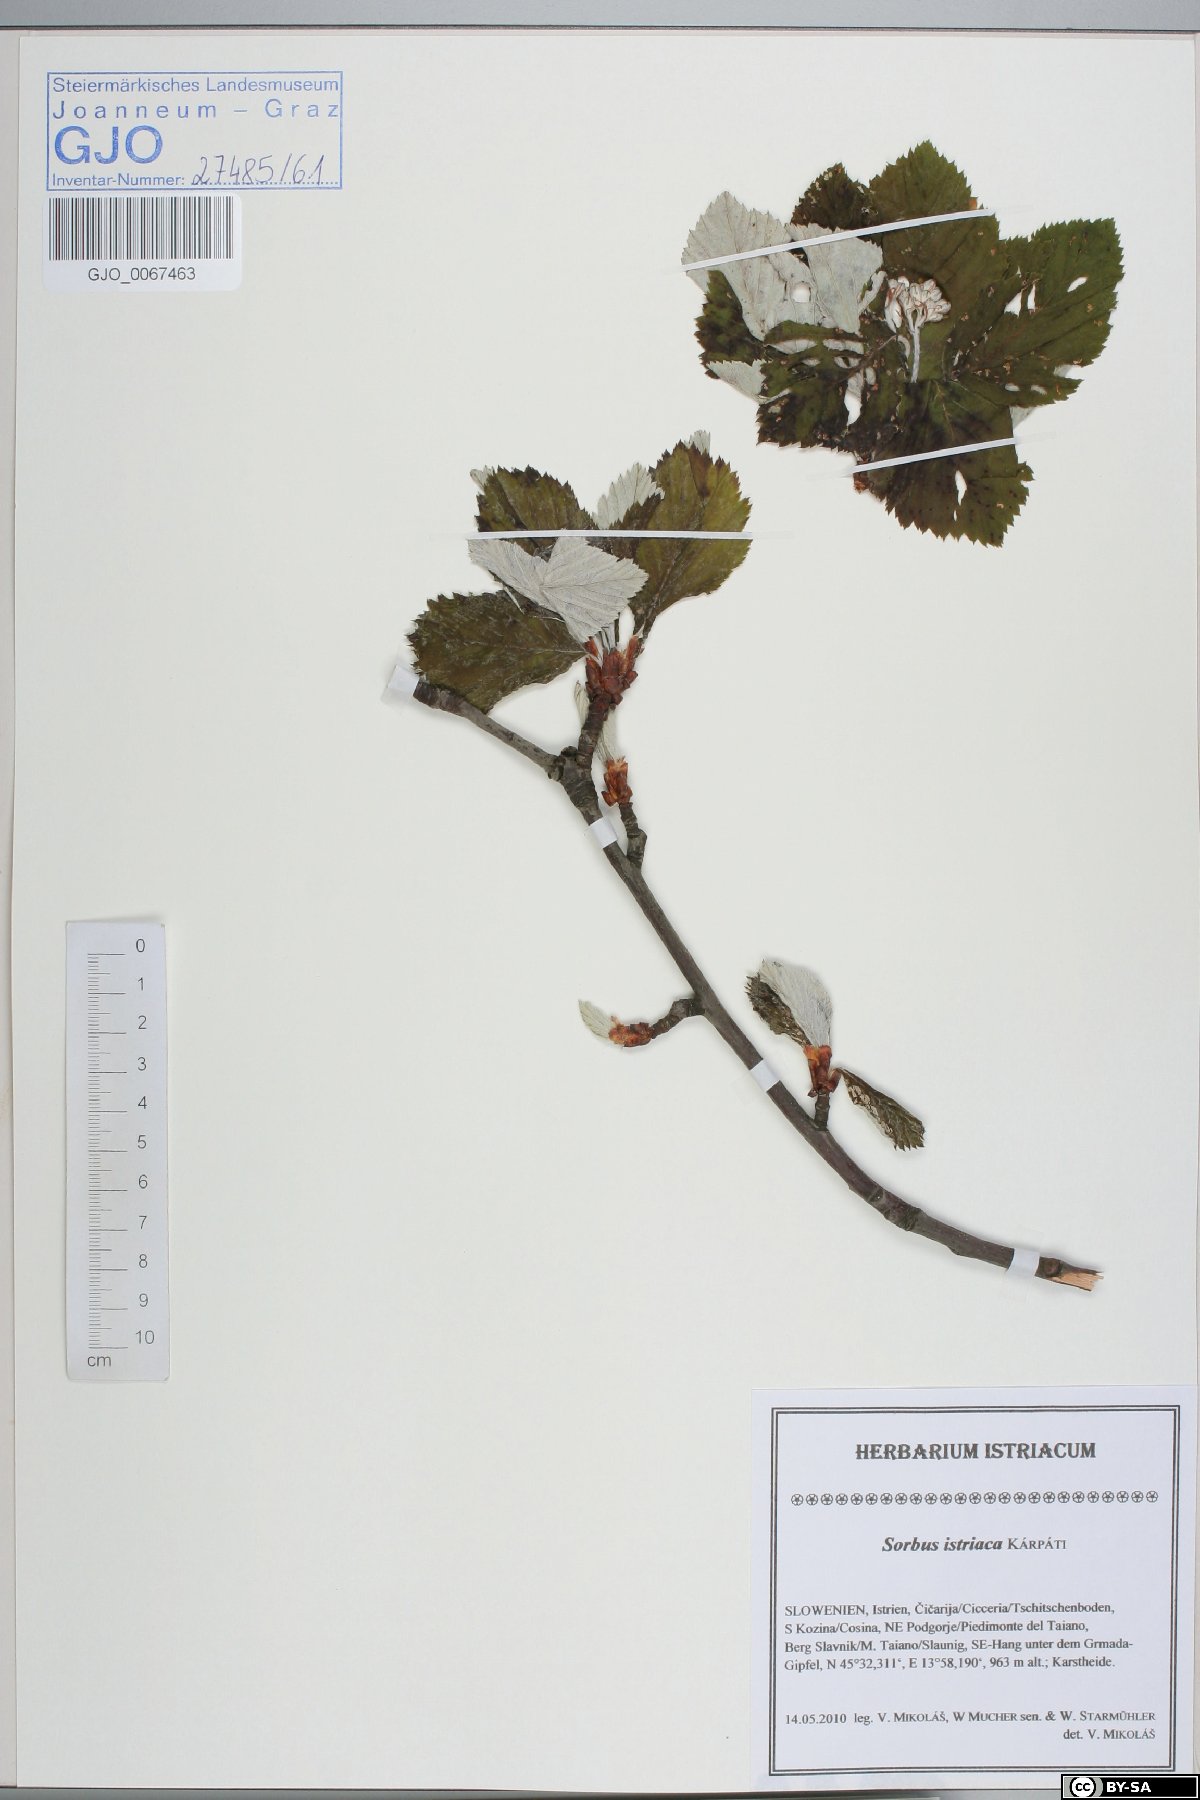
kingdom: Plantae
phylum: Tracheophyta
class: Magnoliopsida
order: Rosales
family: Rosaceae
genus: Karpatiosorbus
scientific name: Karpatiosorbus istriaca
